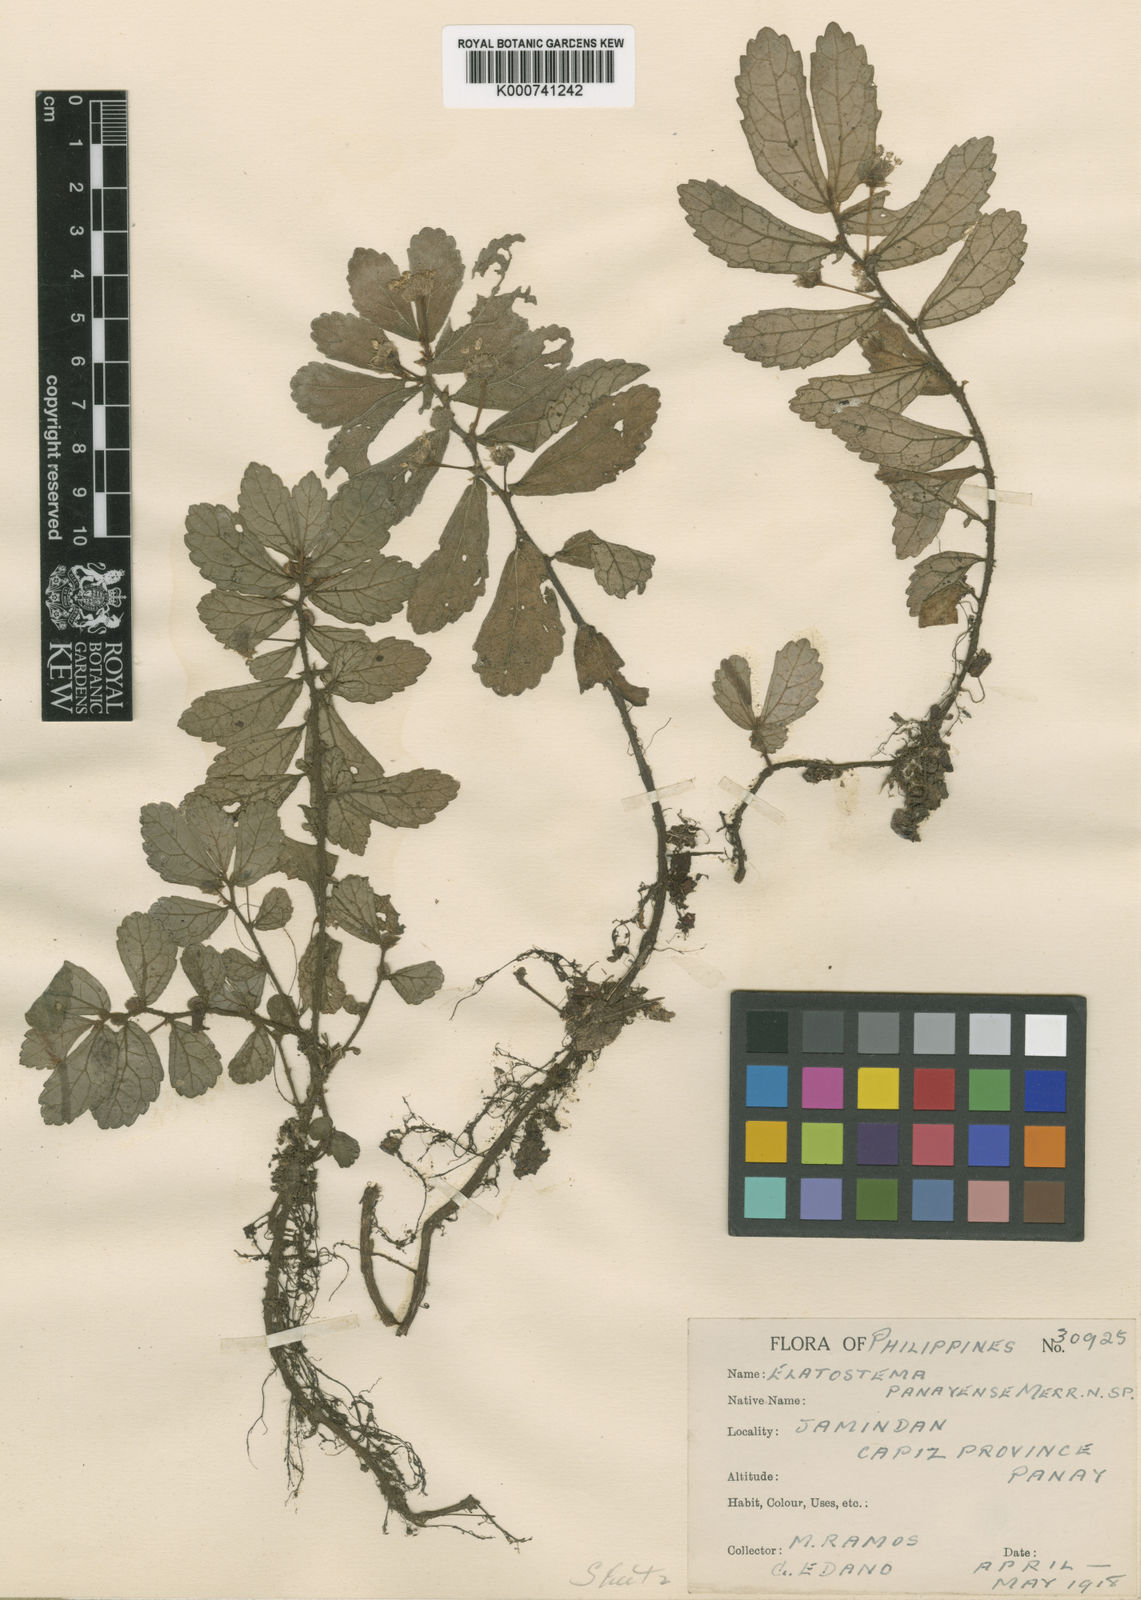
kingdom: Plantae
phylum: Tracheophyta
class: Magnoliopsida
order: Rosales
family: Urticaceae
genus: Elatostema
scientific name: Elatostema panayense
